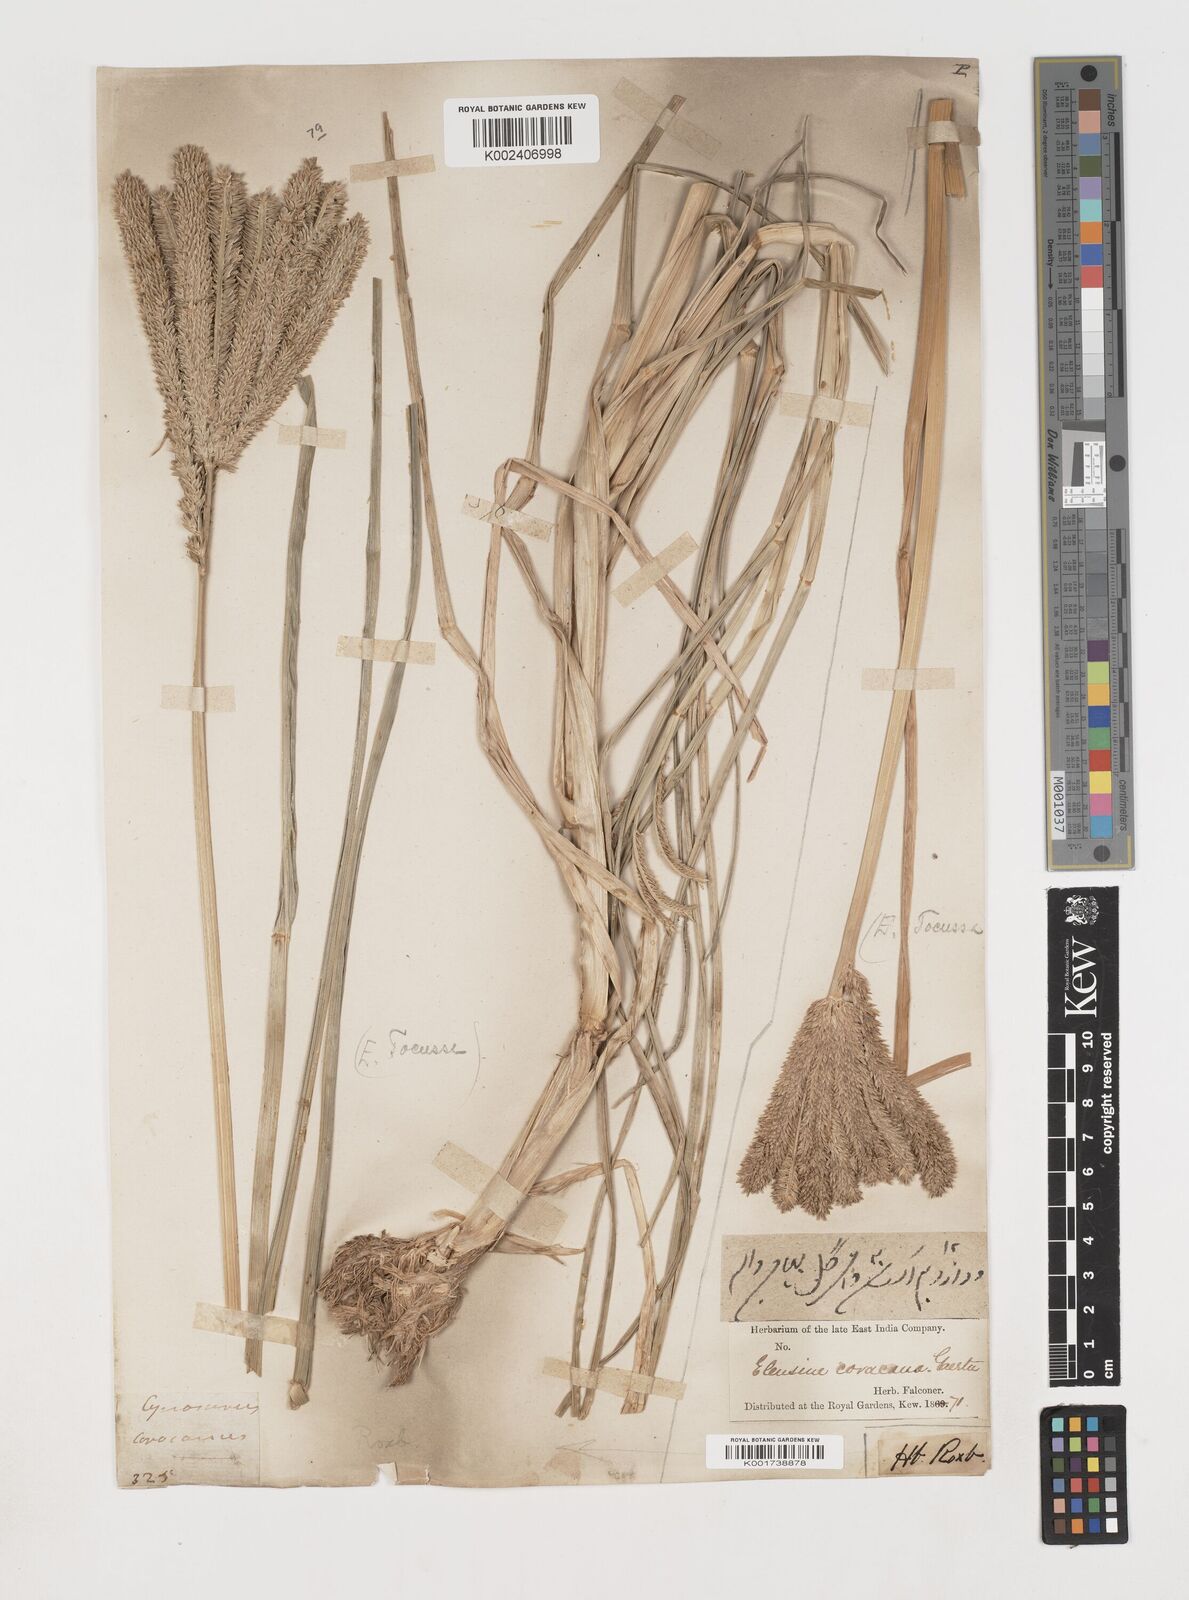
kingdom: Plantae
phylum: Tracheophyta
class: Liliopsida
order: Poales
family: Poaceae
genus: Eleusine
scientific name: Eleusine coracana
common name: Finger millet
